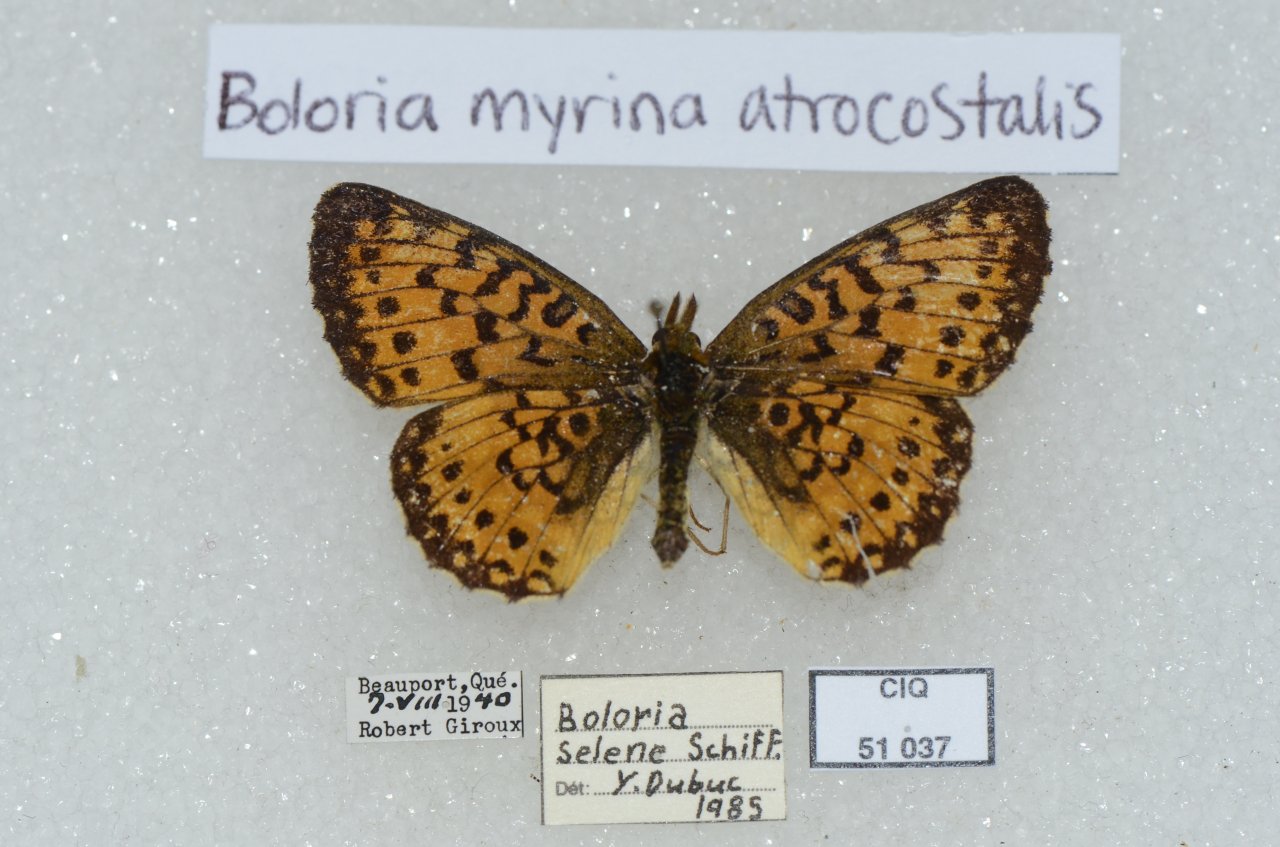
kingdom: Animalia
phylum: Arthropoda
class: Insecta
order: Lepidoptera
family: Nymphalidae
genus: Boloria
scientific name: Boloria selene
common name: Silver-bordered Fritillary
